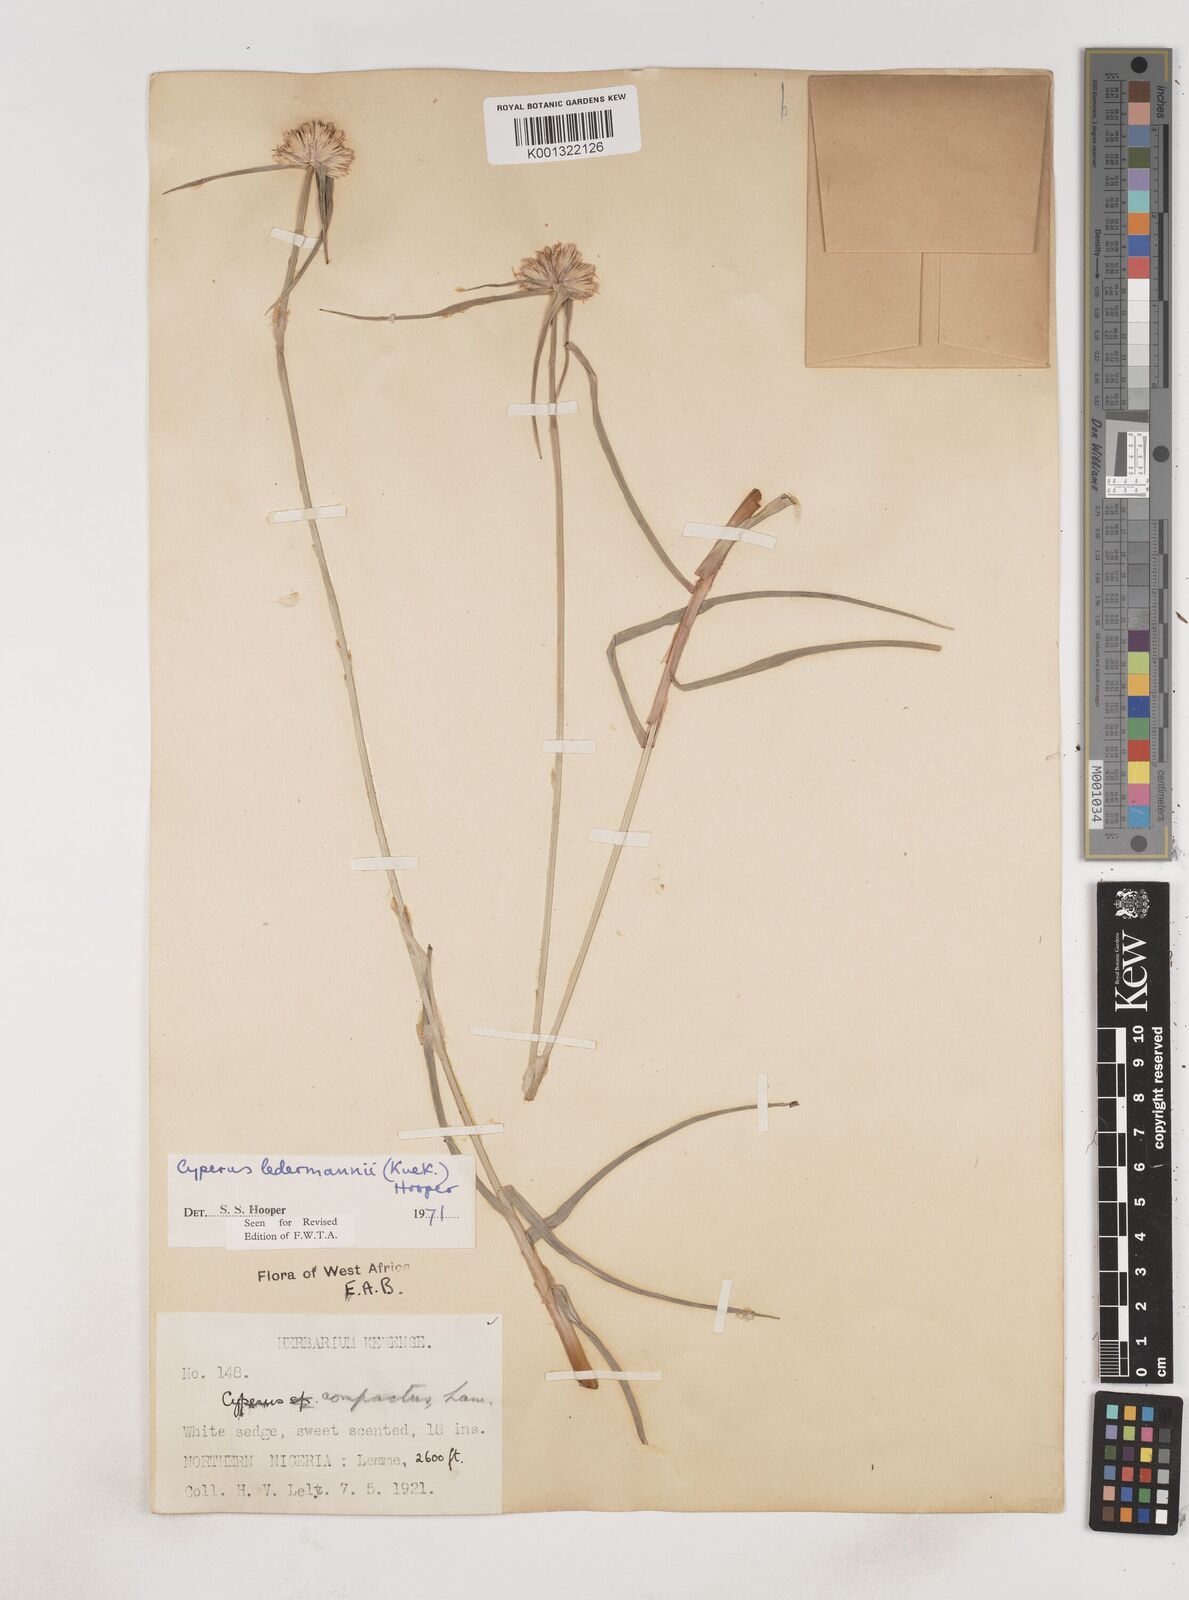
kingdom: Plantae
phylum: Tracheophyta
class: Liliopsida
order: Poales
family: Cyperaceae
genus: Cyperus
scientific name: Cyperus niveus
